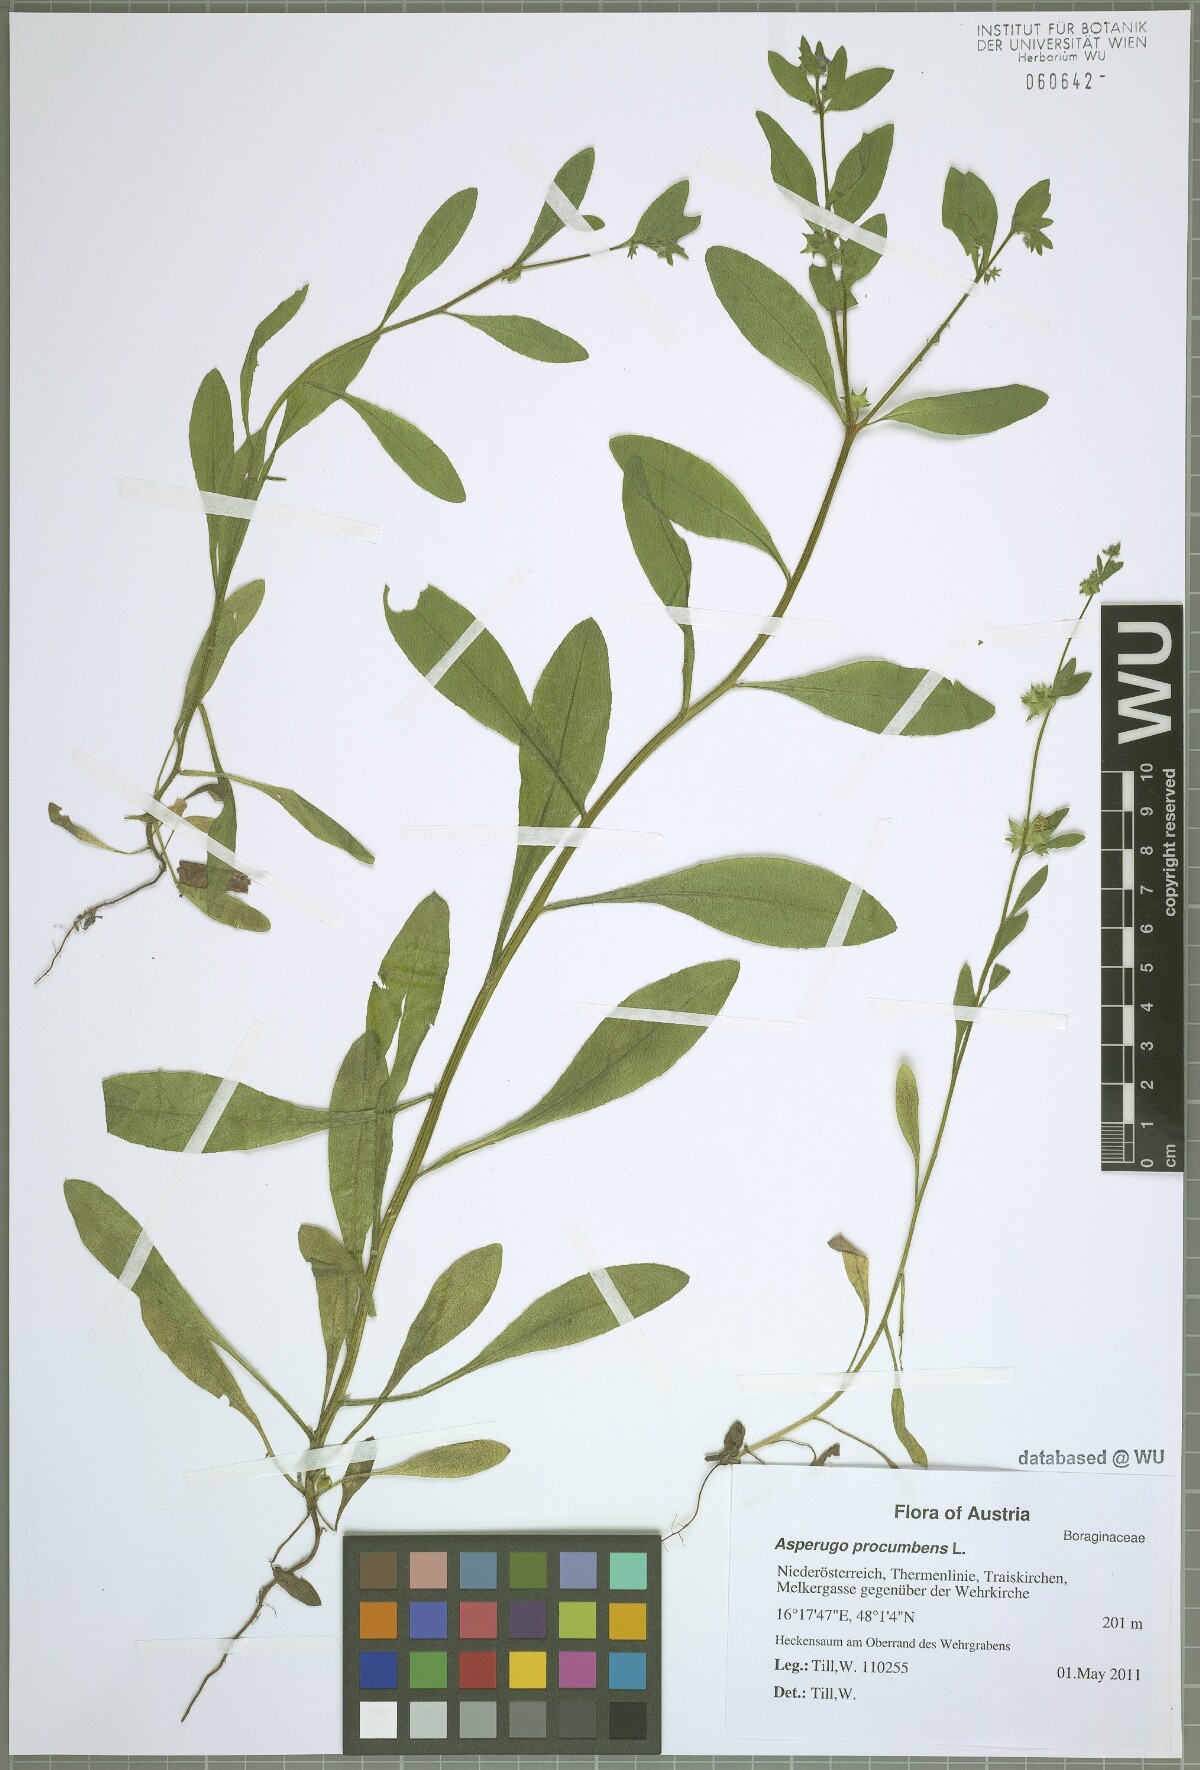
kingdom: Plantae
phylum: Tracheophyta
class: Magnoliopsida
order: Boraginales
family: Boraginaceae
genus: Asperugo
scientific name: Asperugo procumbens
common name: Madwort
